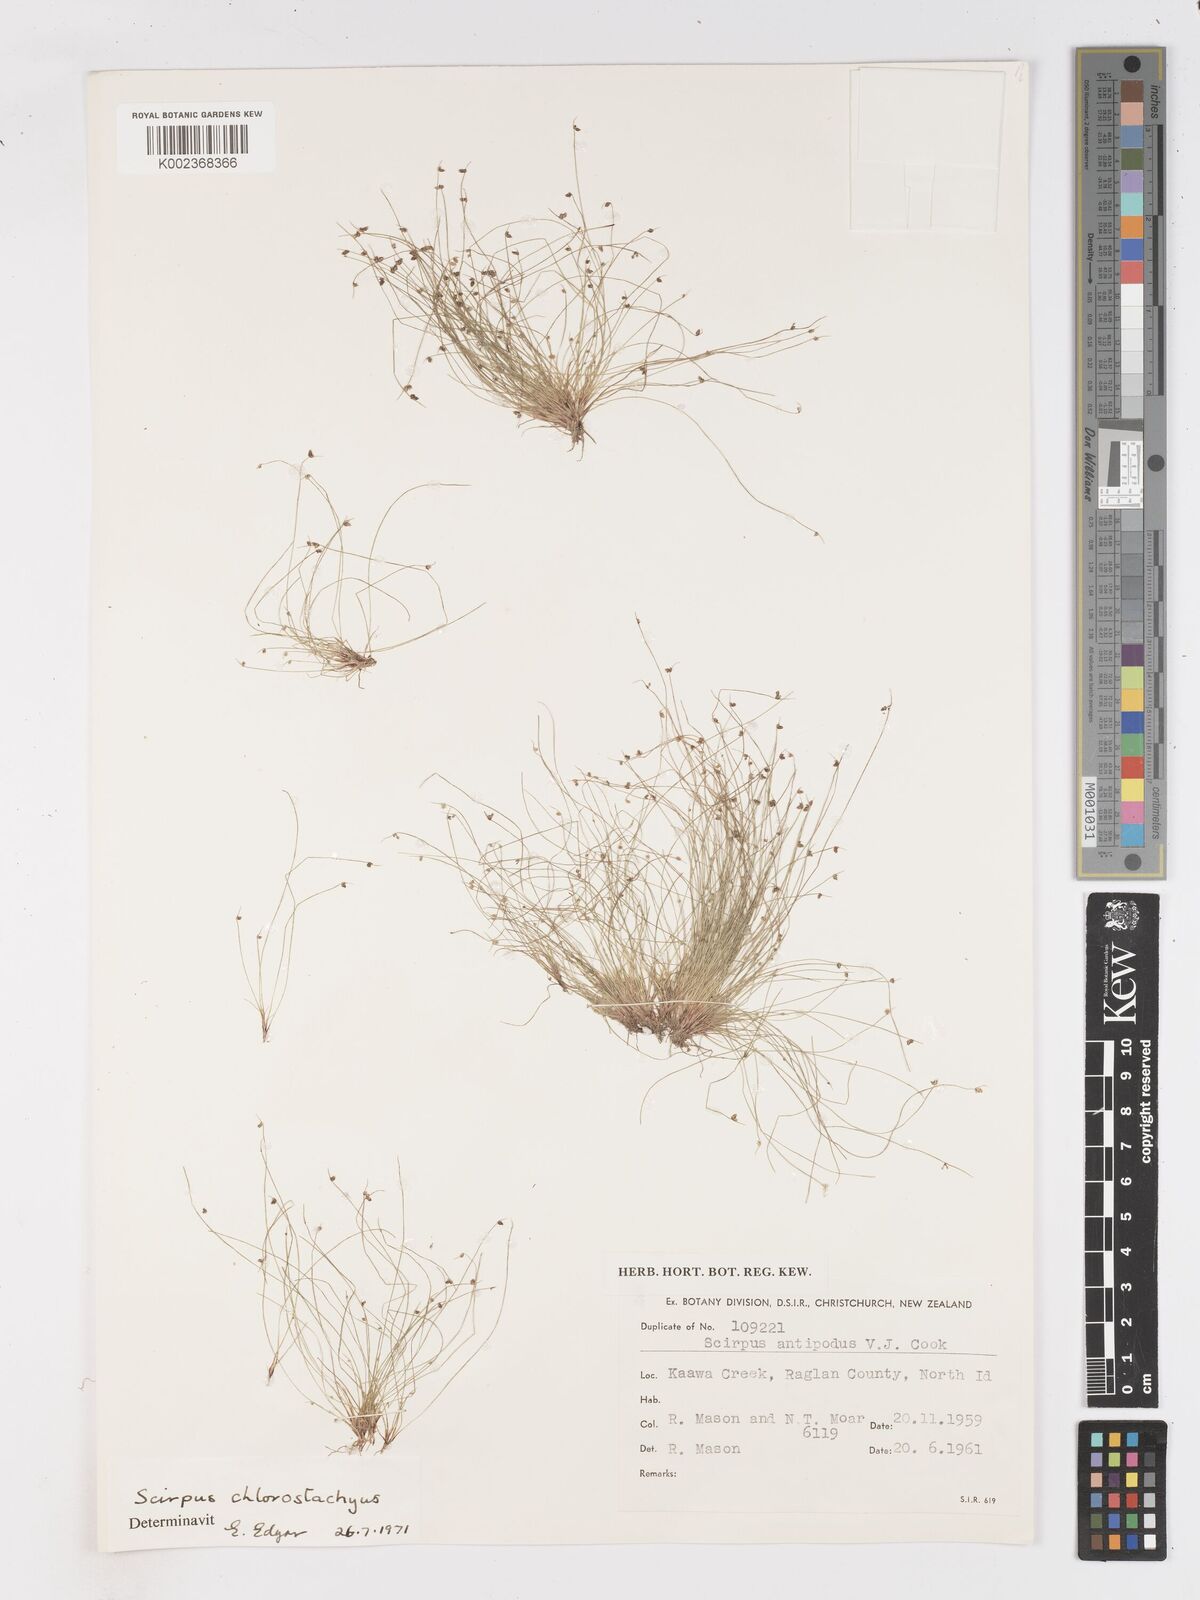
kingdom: Plantae
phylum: Tracheophyta
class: Liliopsida
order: Poales
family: Cyperaceae
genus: Isolepis
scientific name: Isolepis sepulcralis
